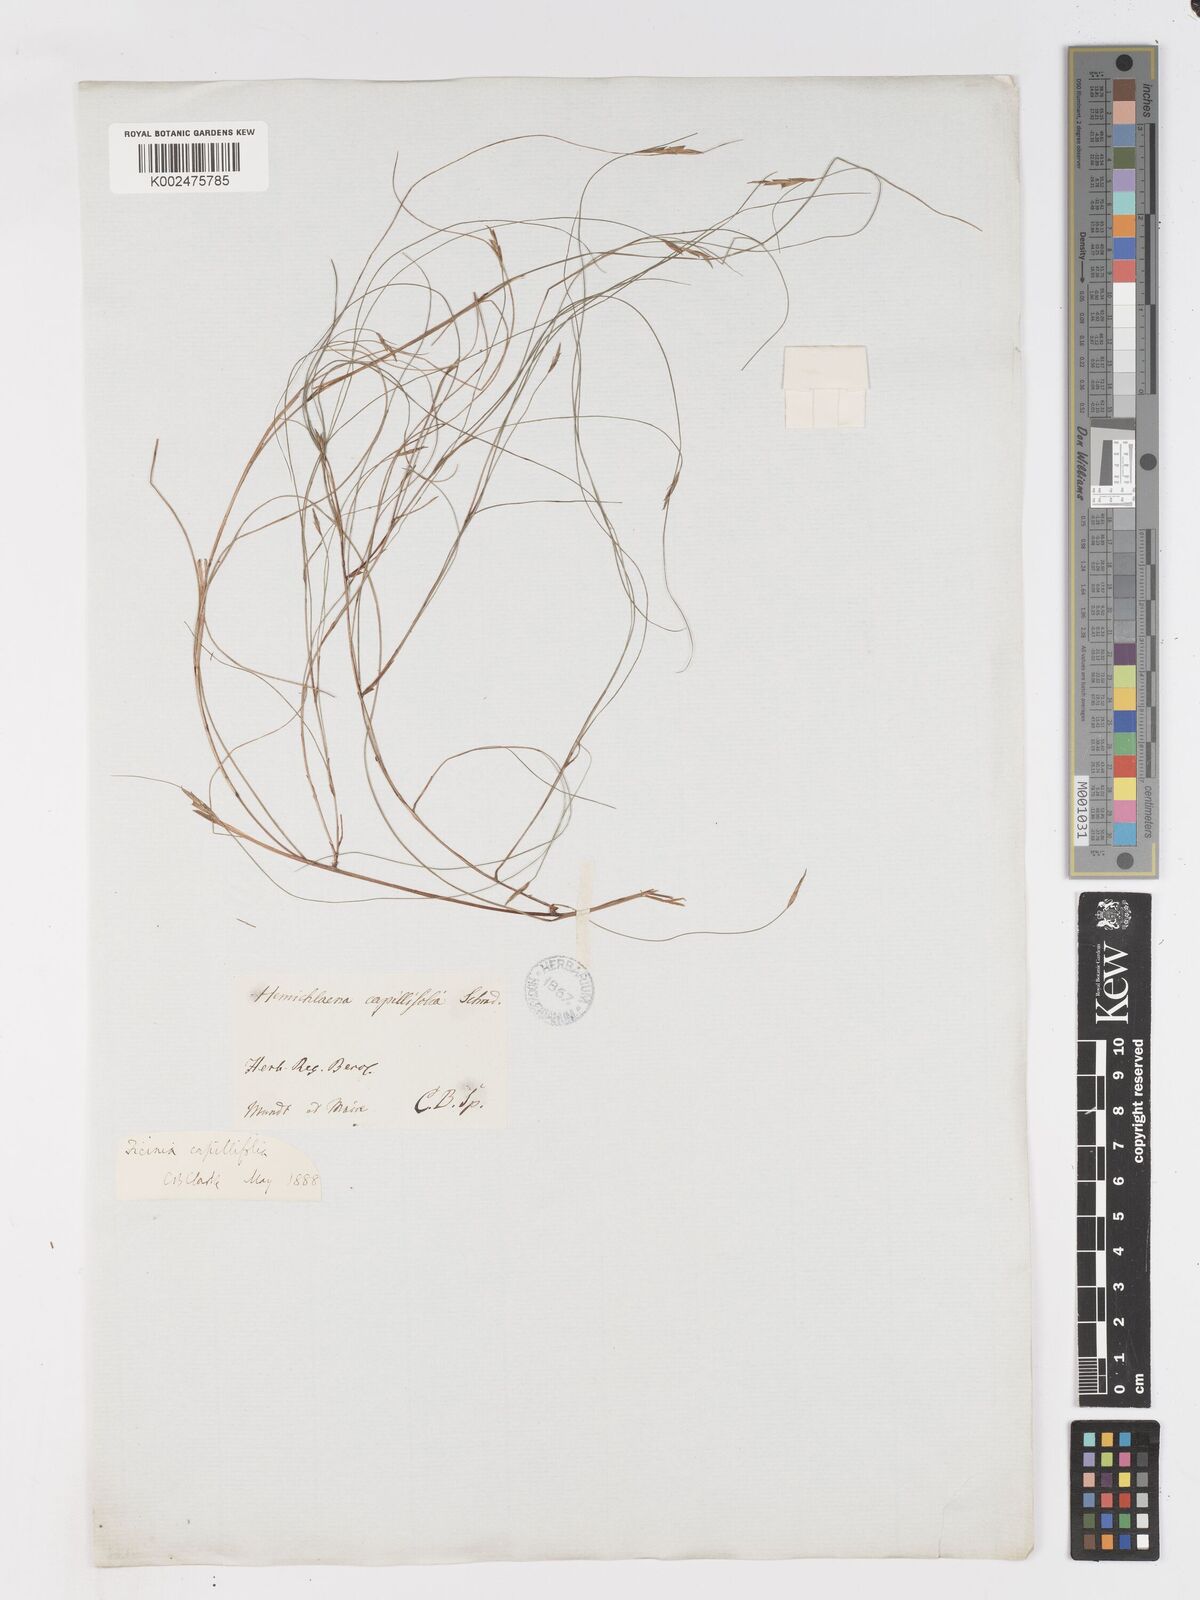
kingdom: Plantae
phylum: Tracheophyta
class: Liliopsida
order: Poales
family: Cyperaceae
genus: Ficinia
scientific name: Ficinia capillifolia
